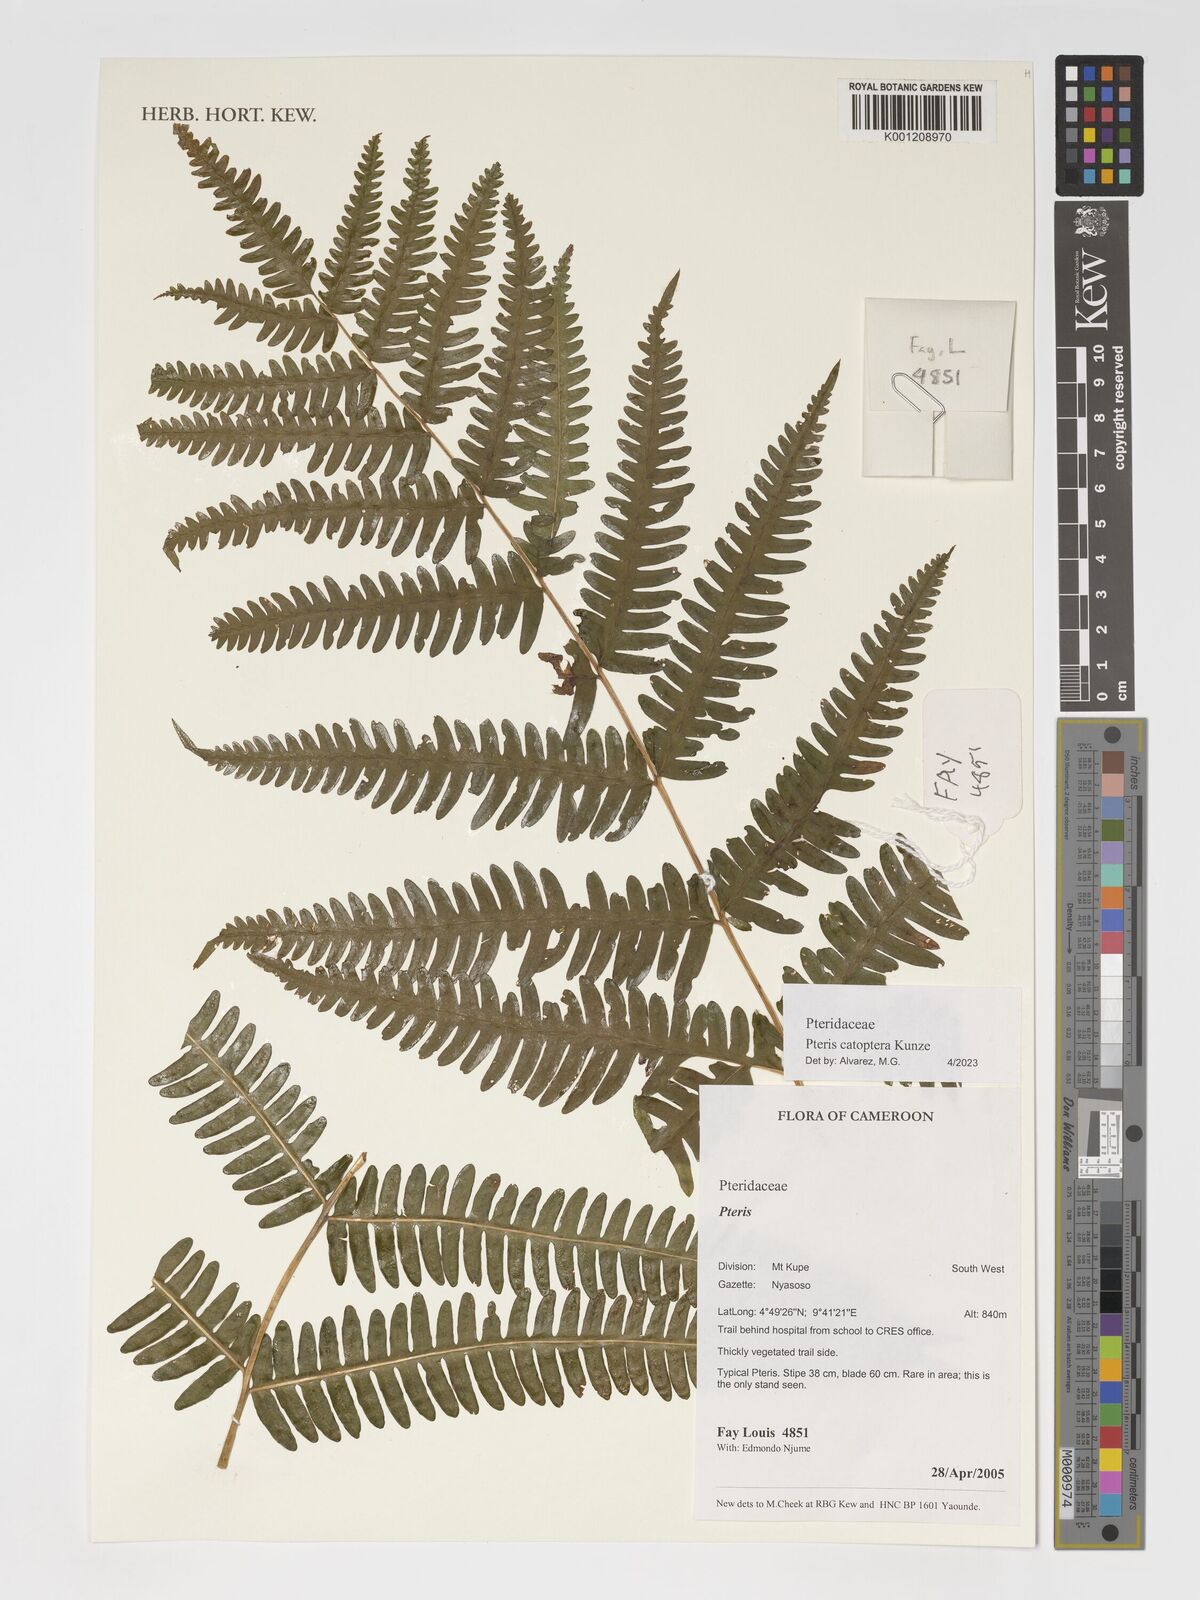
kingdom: Plantae
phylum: Tracheophyta
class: Polypodiopsida
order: Polypodiales
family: Pteridaceae
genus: Pteris
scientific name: Pteris catoptera
